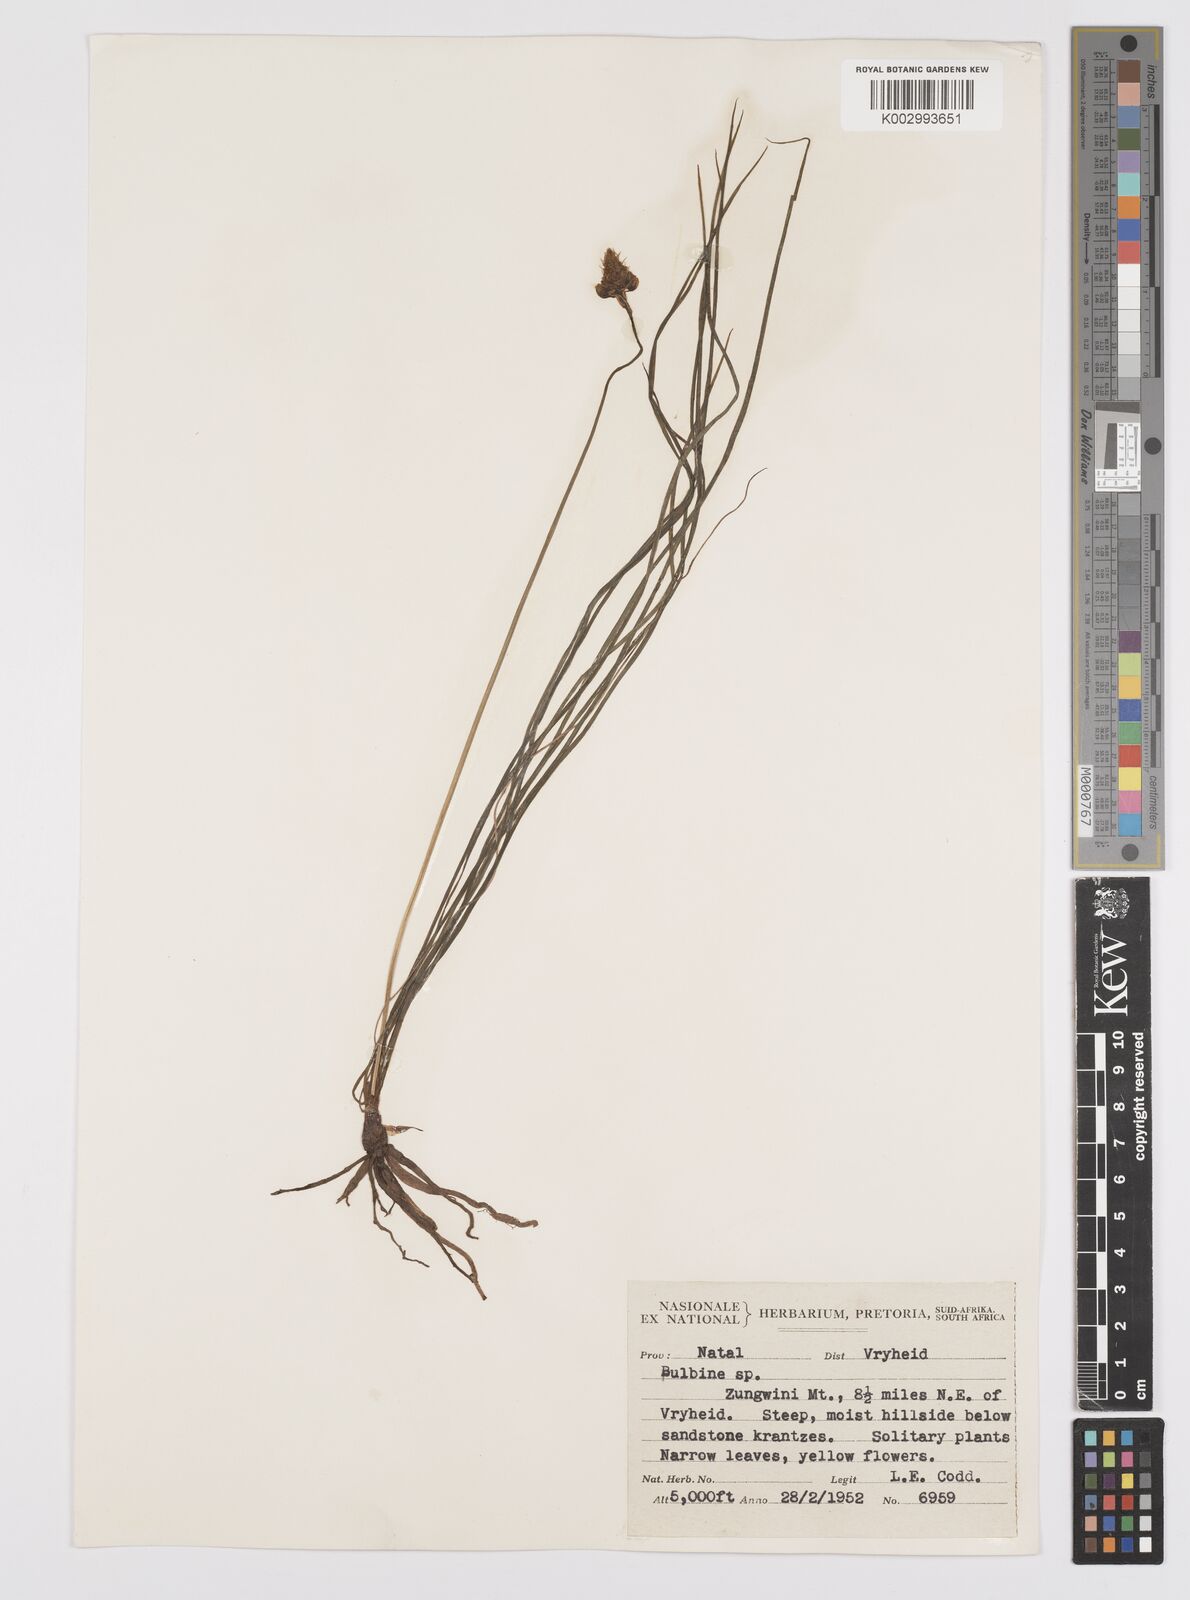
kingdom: Plantae
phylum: Tracheophyta
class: Liliopsida
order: Asparagales
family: Asphodelaceae
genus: Bulbine
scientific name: Bulbine capitata
